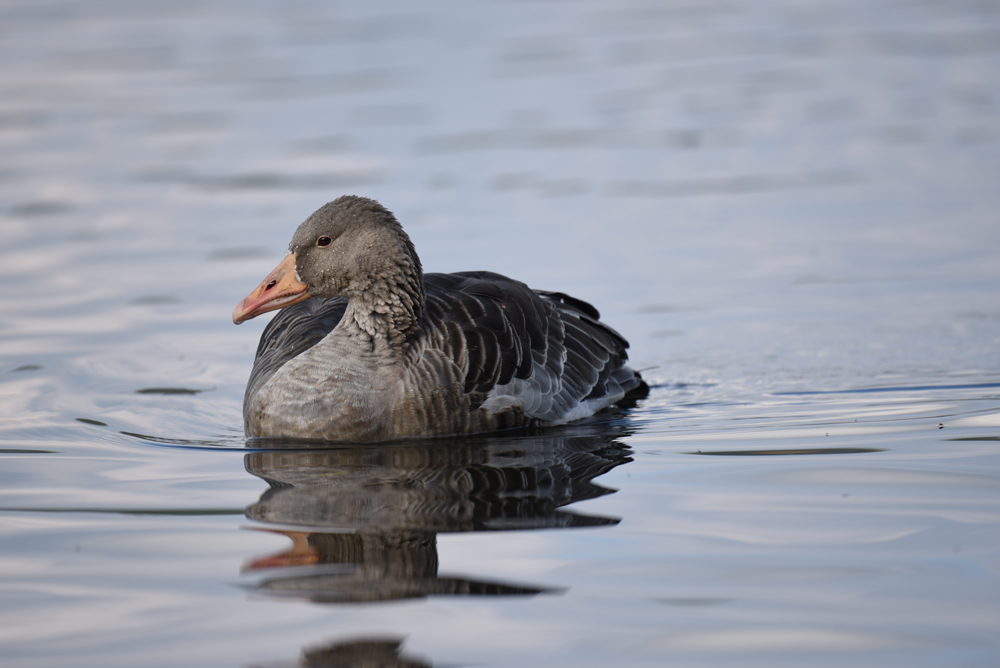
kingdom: Animalia
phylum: Chordata
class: Aves
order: Anseriformes
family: Anatidae
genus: Anser
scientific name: Anser anser
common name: Greylag goose
